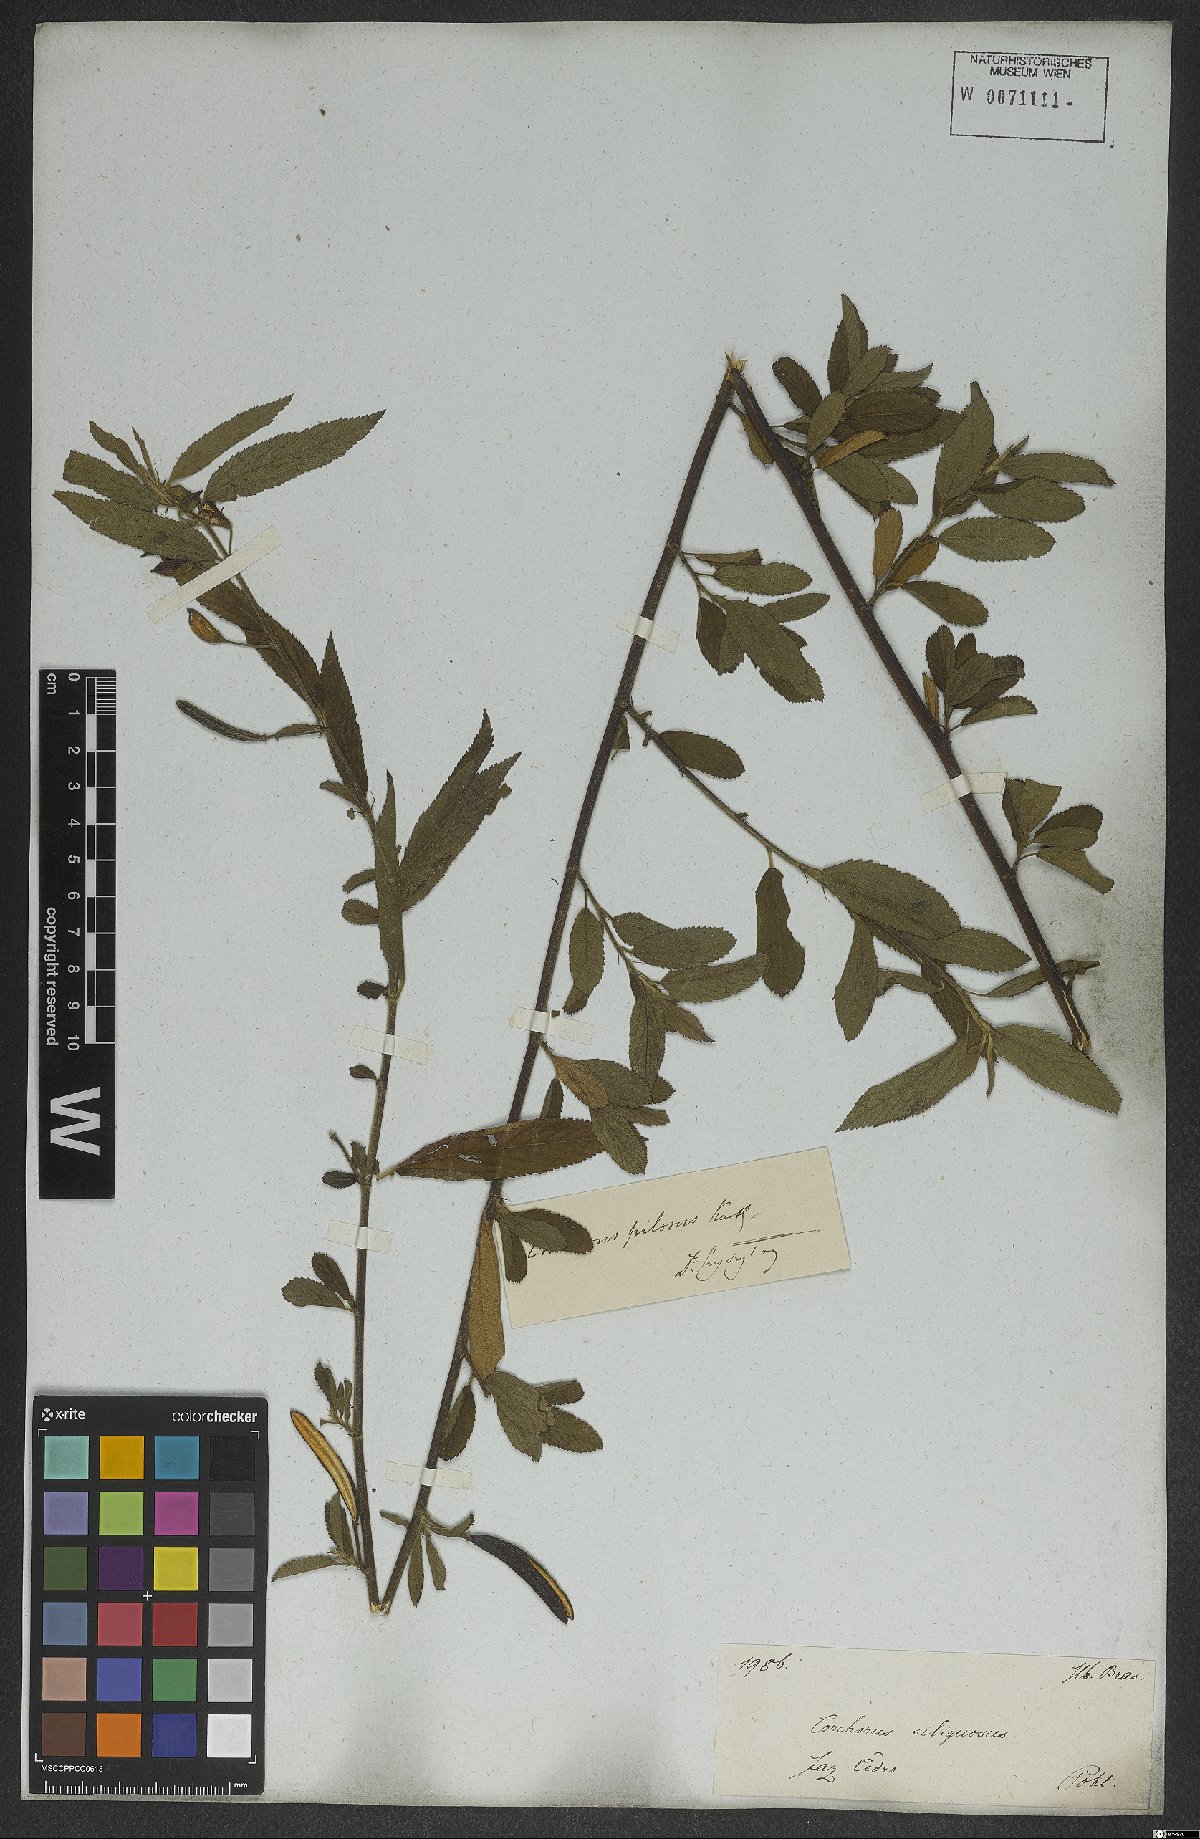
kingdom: Plantae
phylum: Tracheophyta
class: Magnoliopsida
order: Malvales
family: Malvaceae
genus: Corchorus
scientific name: Corchorus hirtus
